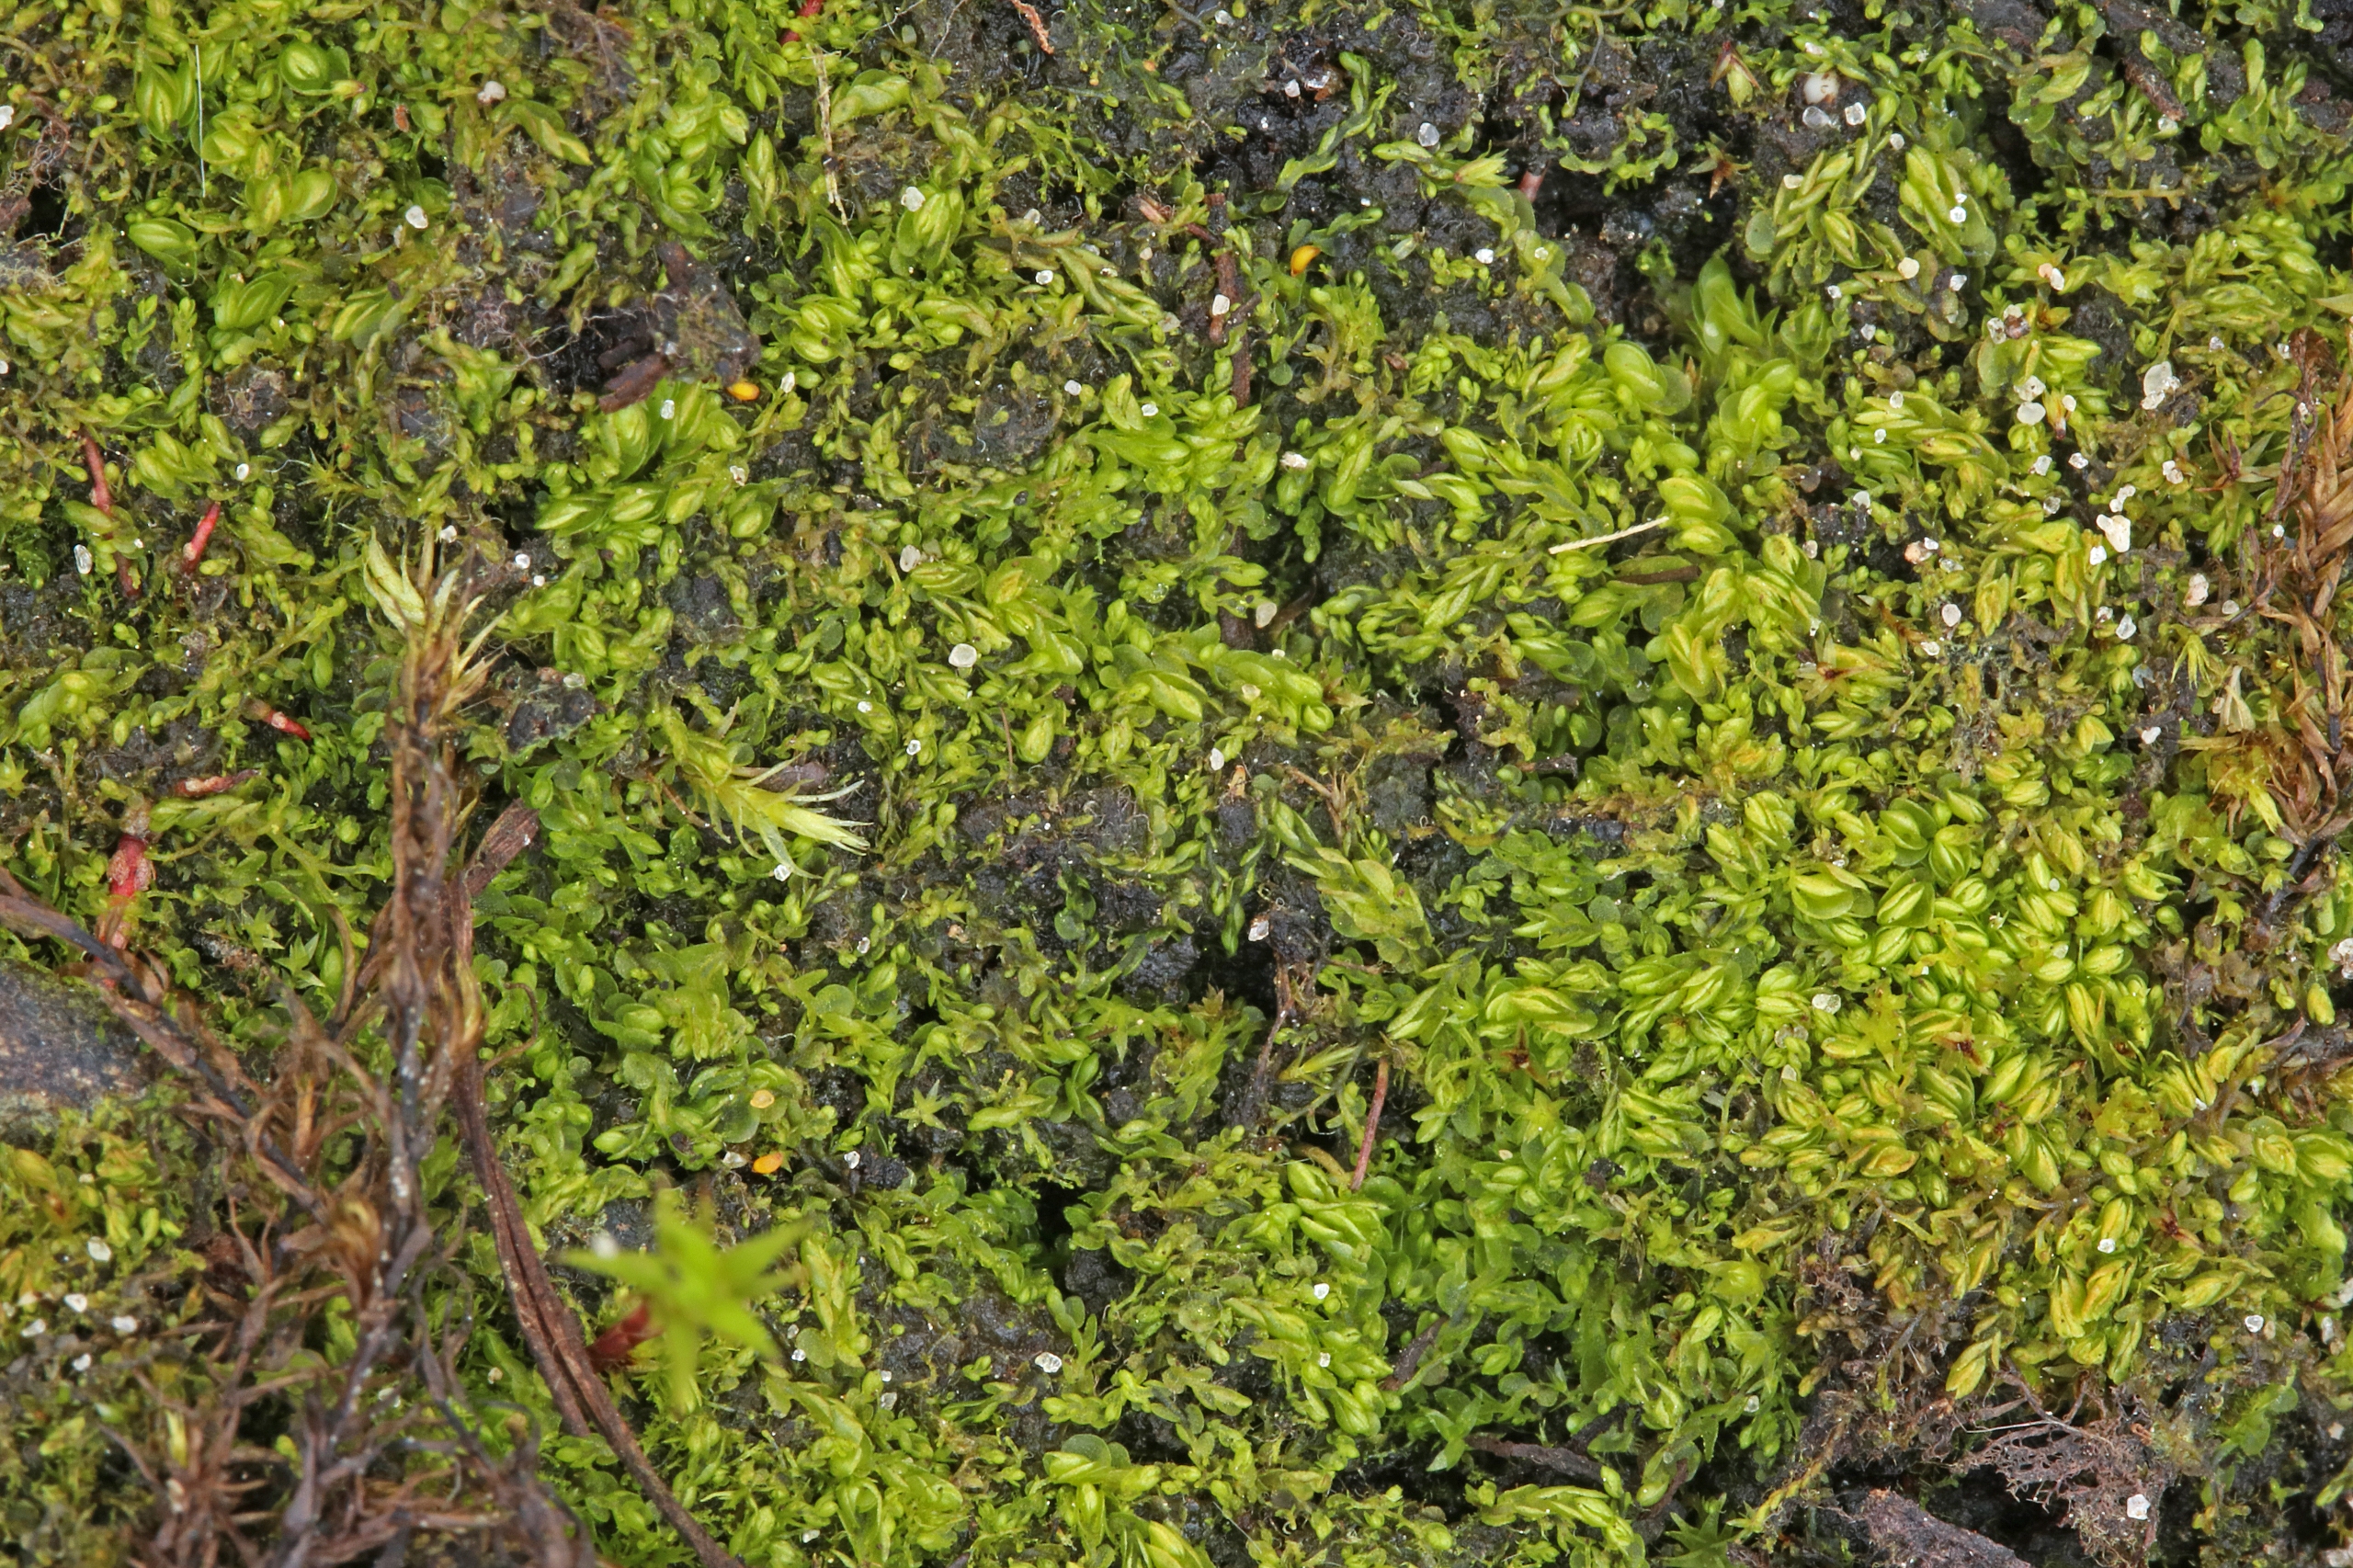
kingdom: Plantae
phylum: Marchantiophyta
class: Jungermanniopsida
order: Jungermanniales
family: Solenostomataceae
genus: Solenostoma
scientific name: Solenostoma gracillimum
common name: Vinget rørmund
